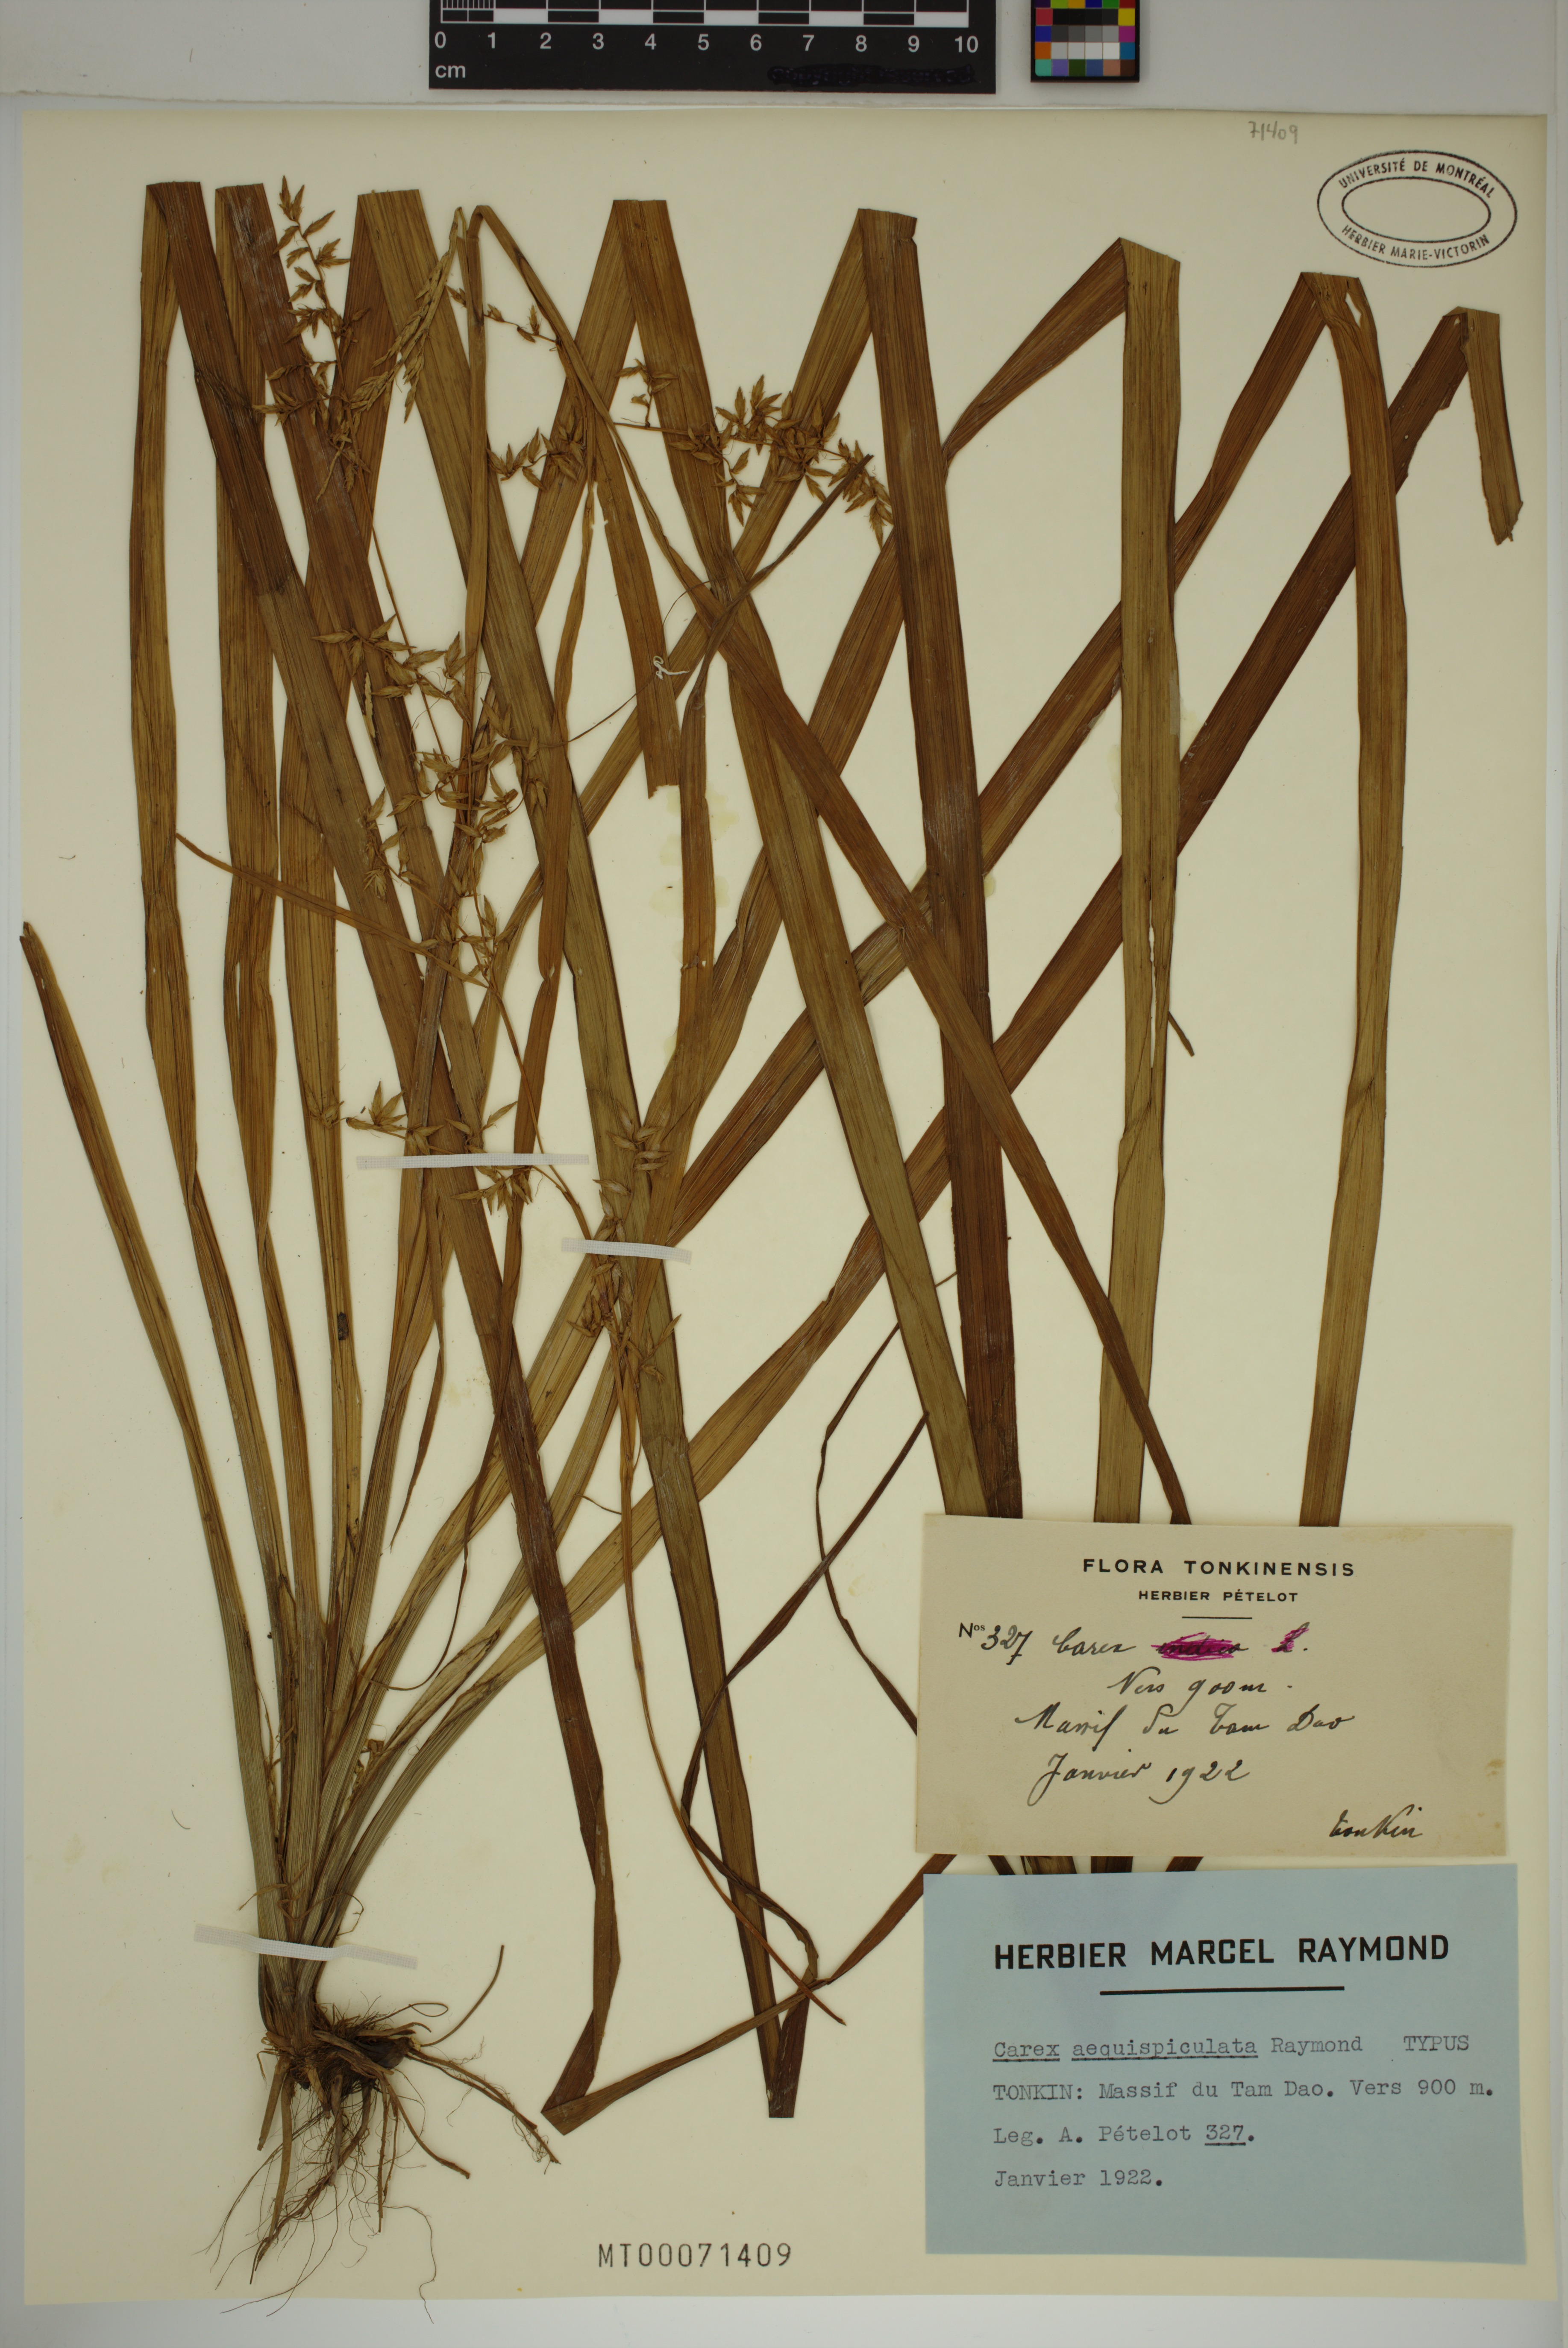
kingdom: Plantae
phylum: Tracheophyta
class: Liliopsida
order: Poales
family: Cyperaceae
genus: Carex
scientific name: Carex
